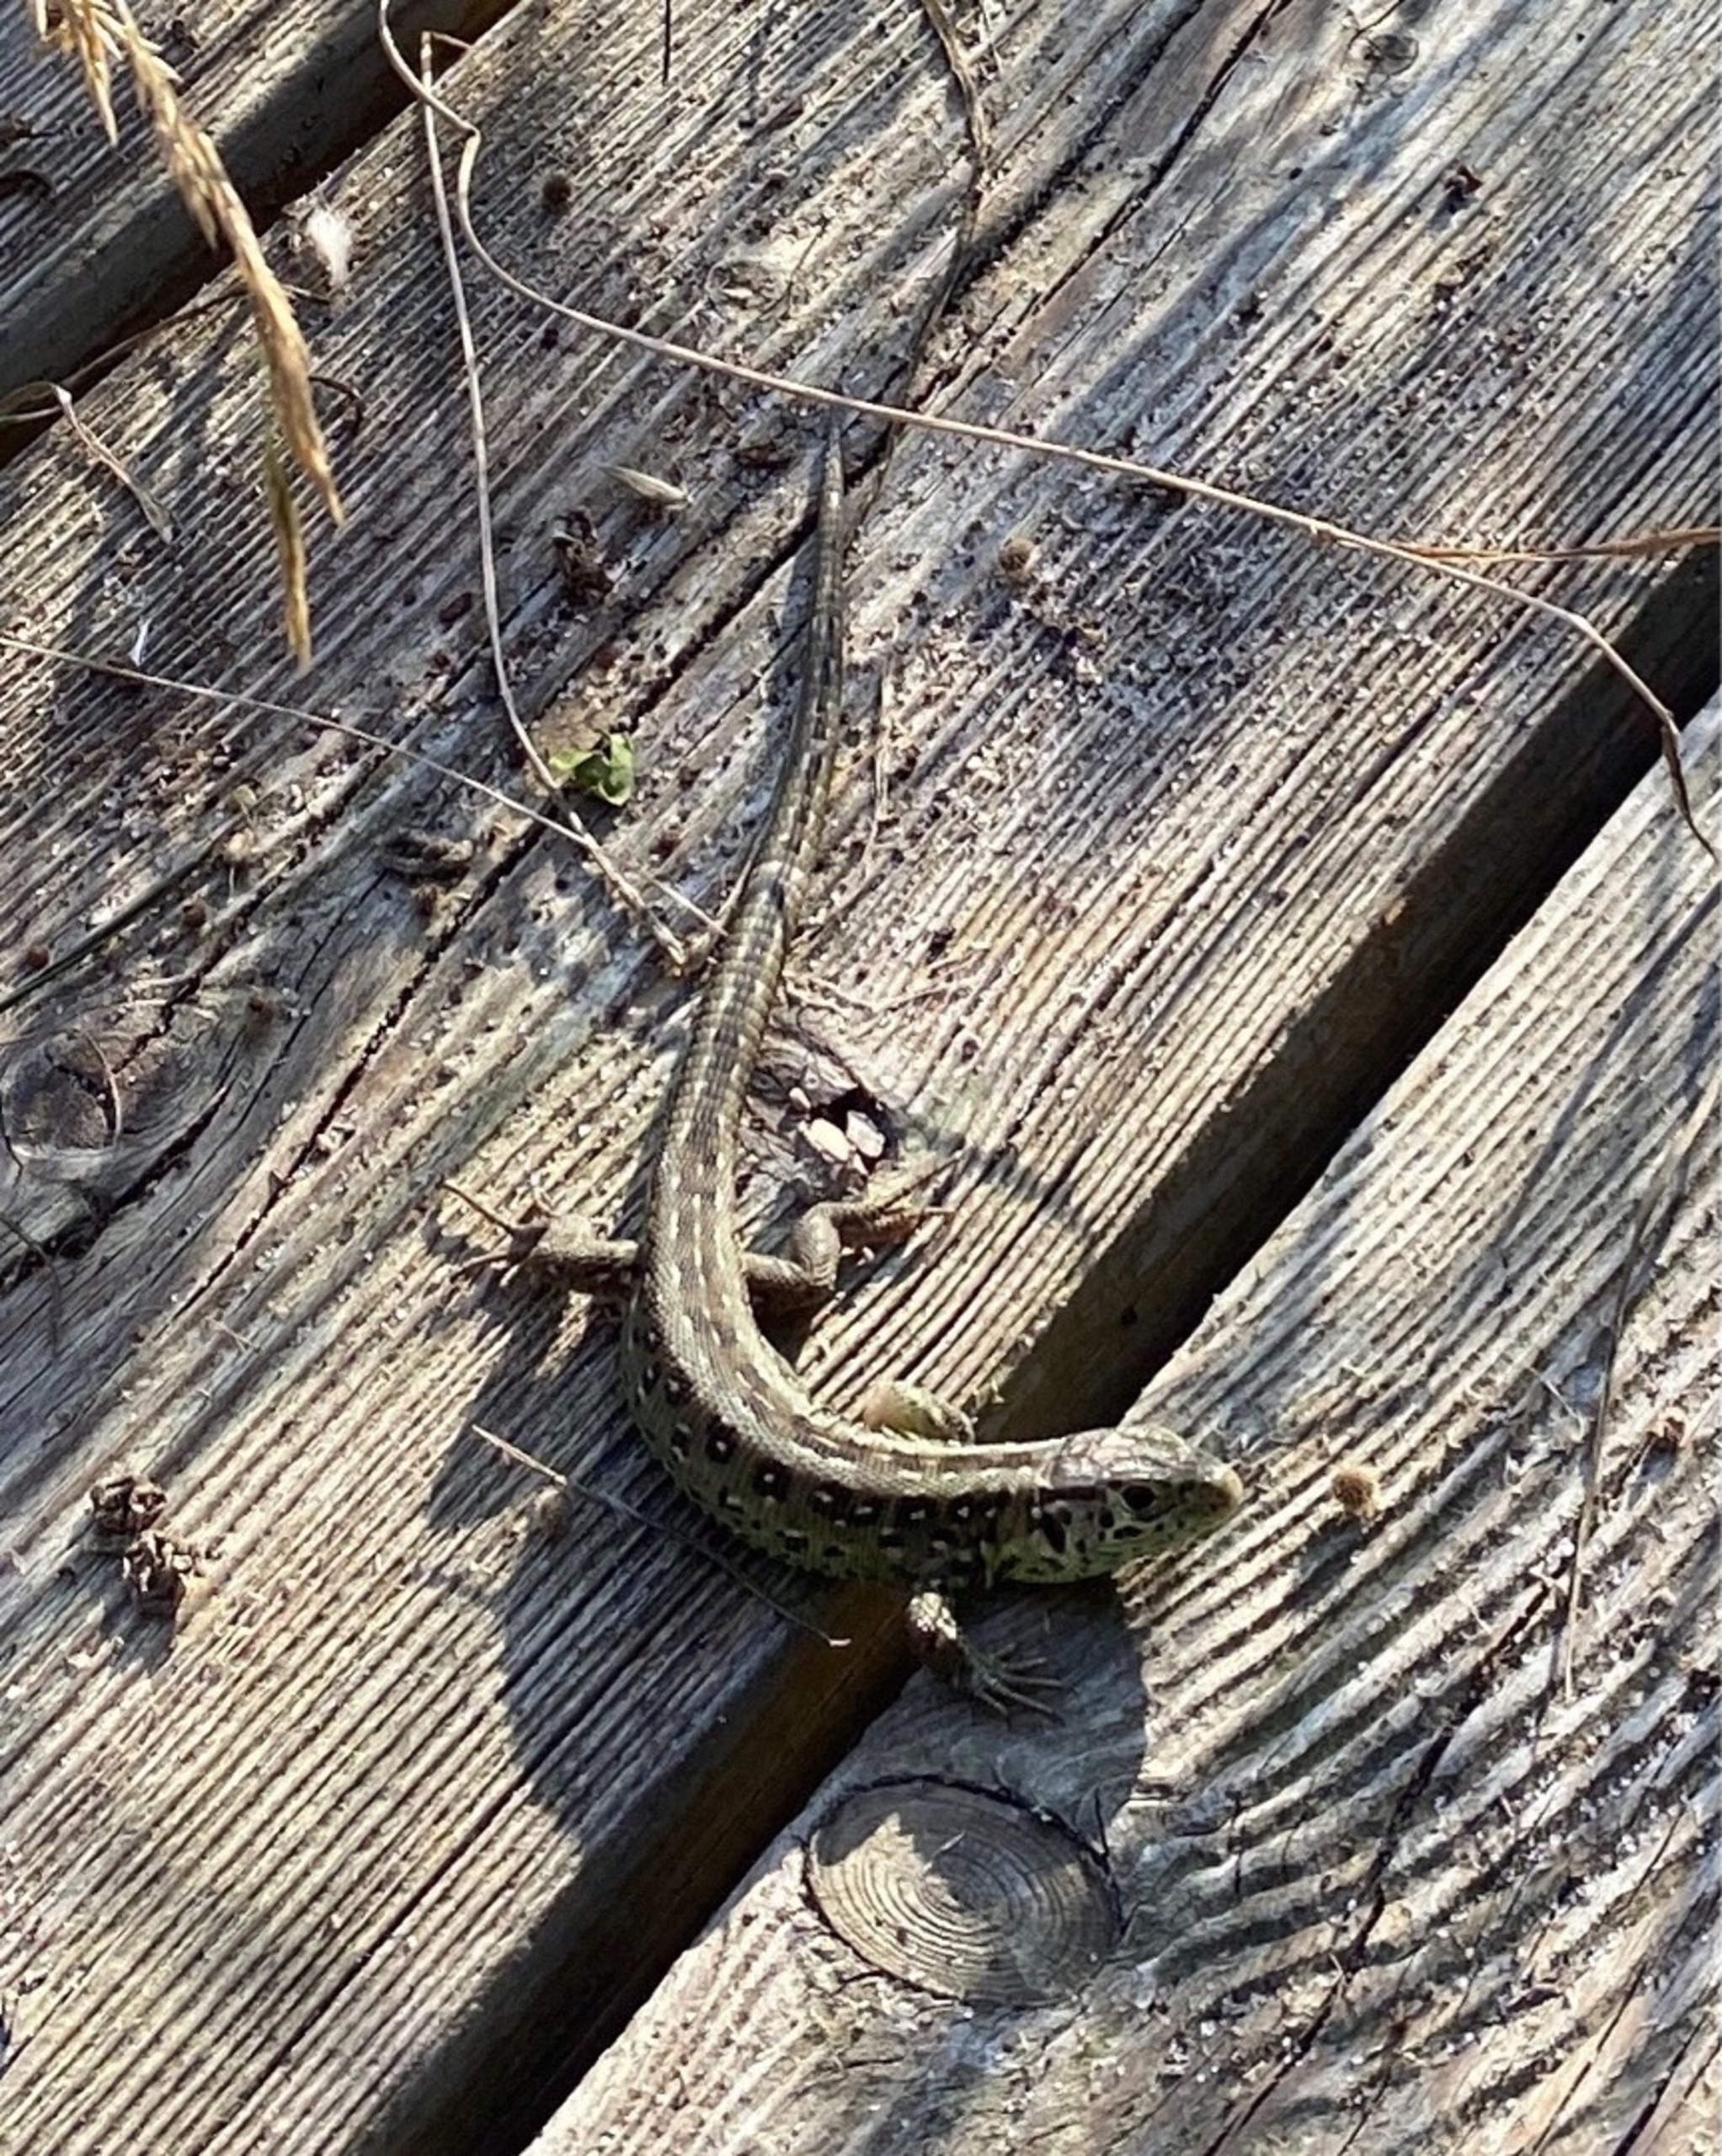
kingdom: Animalia
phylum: Chordata
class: Squamata
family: Lacertidae
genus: Lacerta
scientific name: Lacerta agilis
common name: Markfirben
